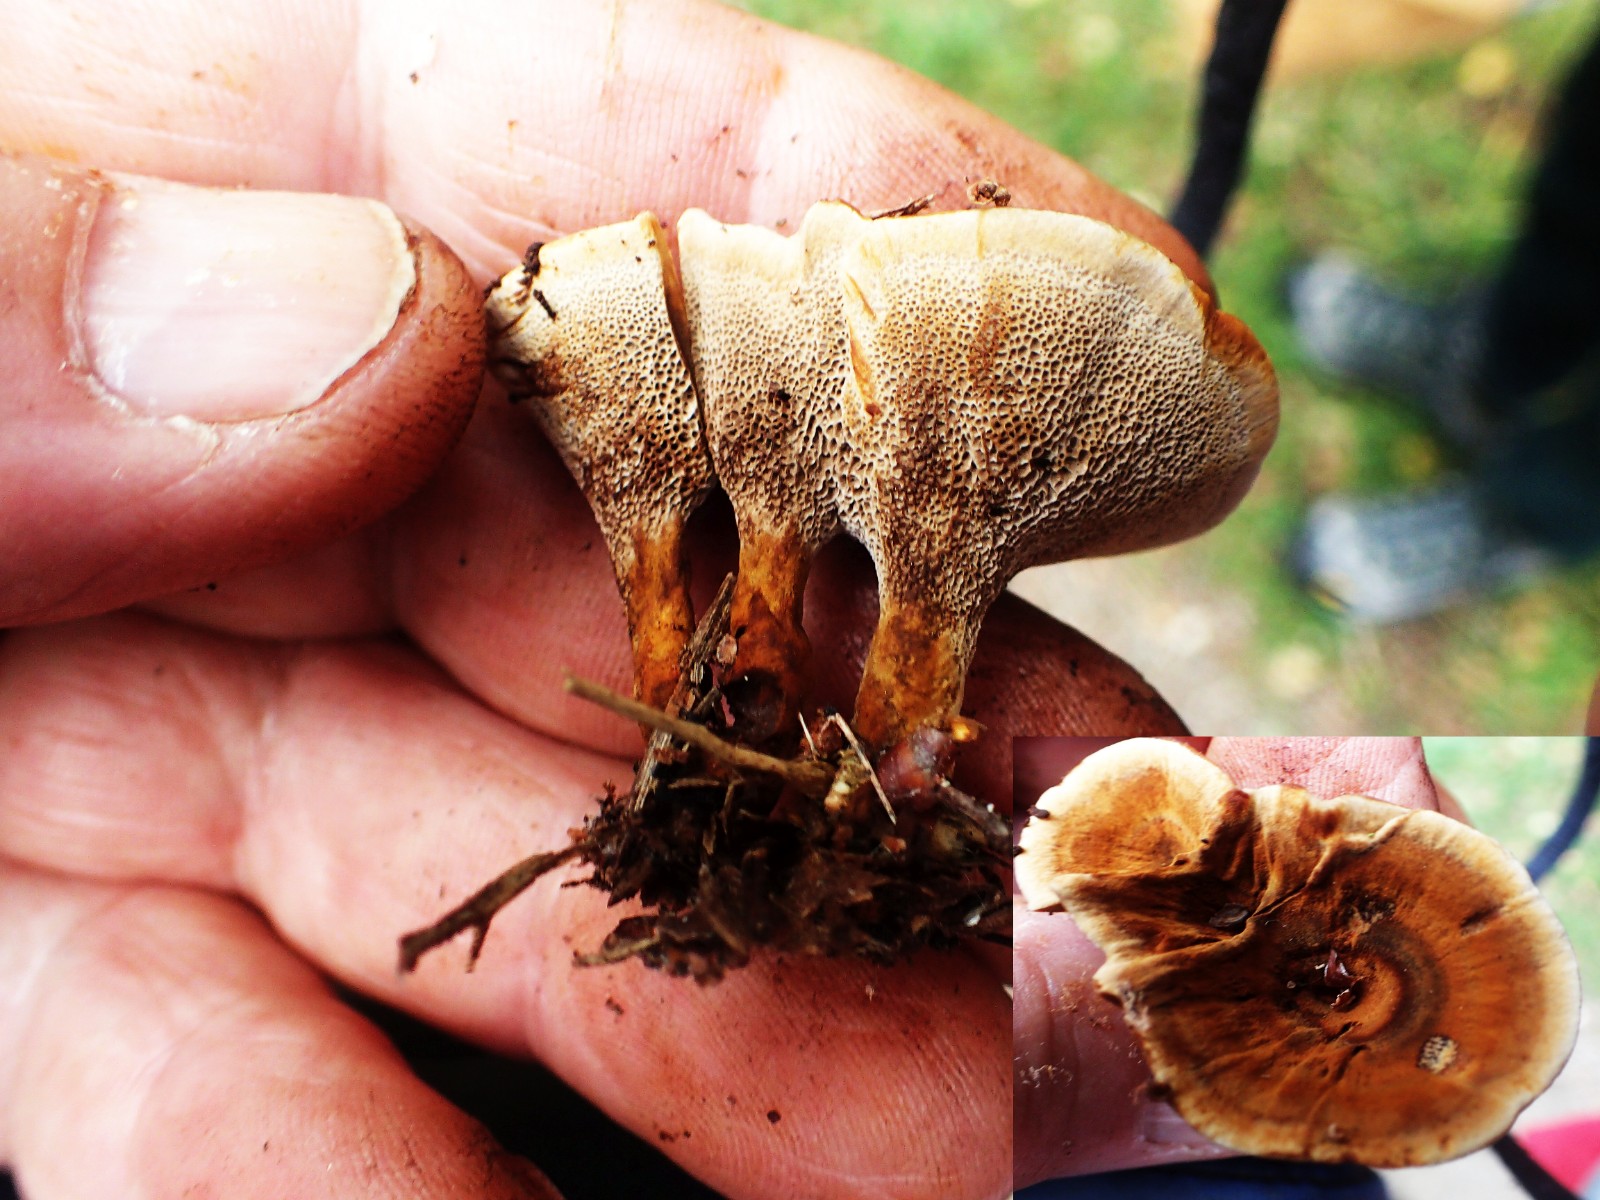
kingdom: Fungi
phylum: Basidiomycota
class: Agaricomycetes
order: Hymenochaetales
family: Hymenochaetaceae
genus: Coltricia
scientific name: Coltricia perennis
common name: almindelig sandporesvamp
